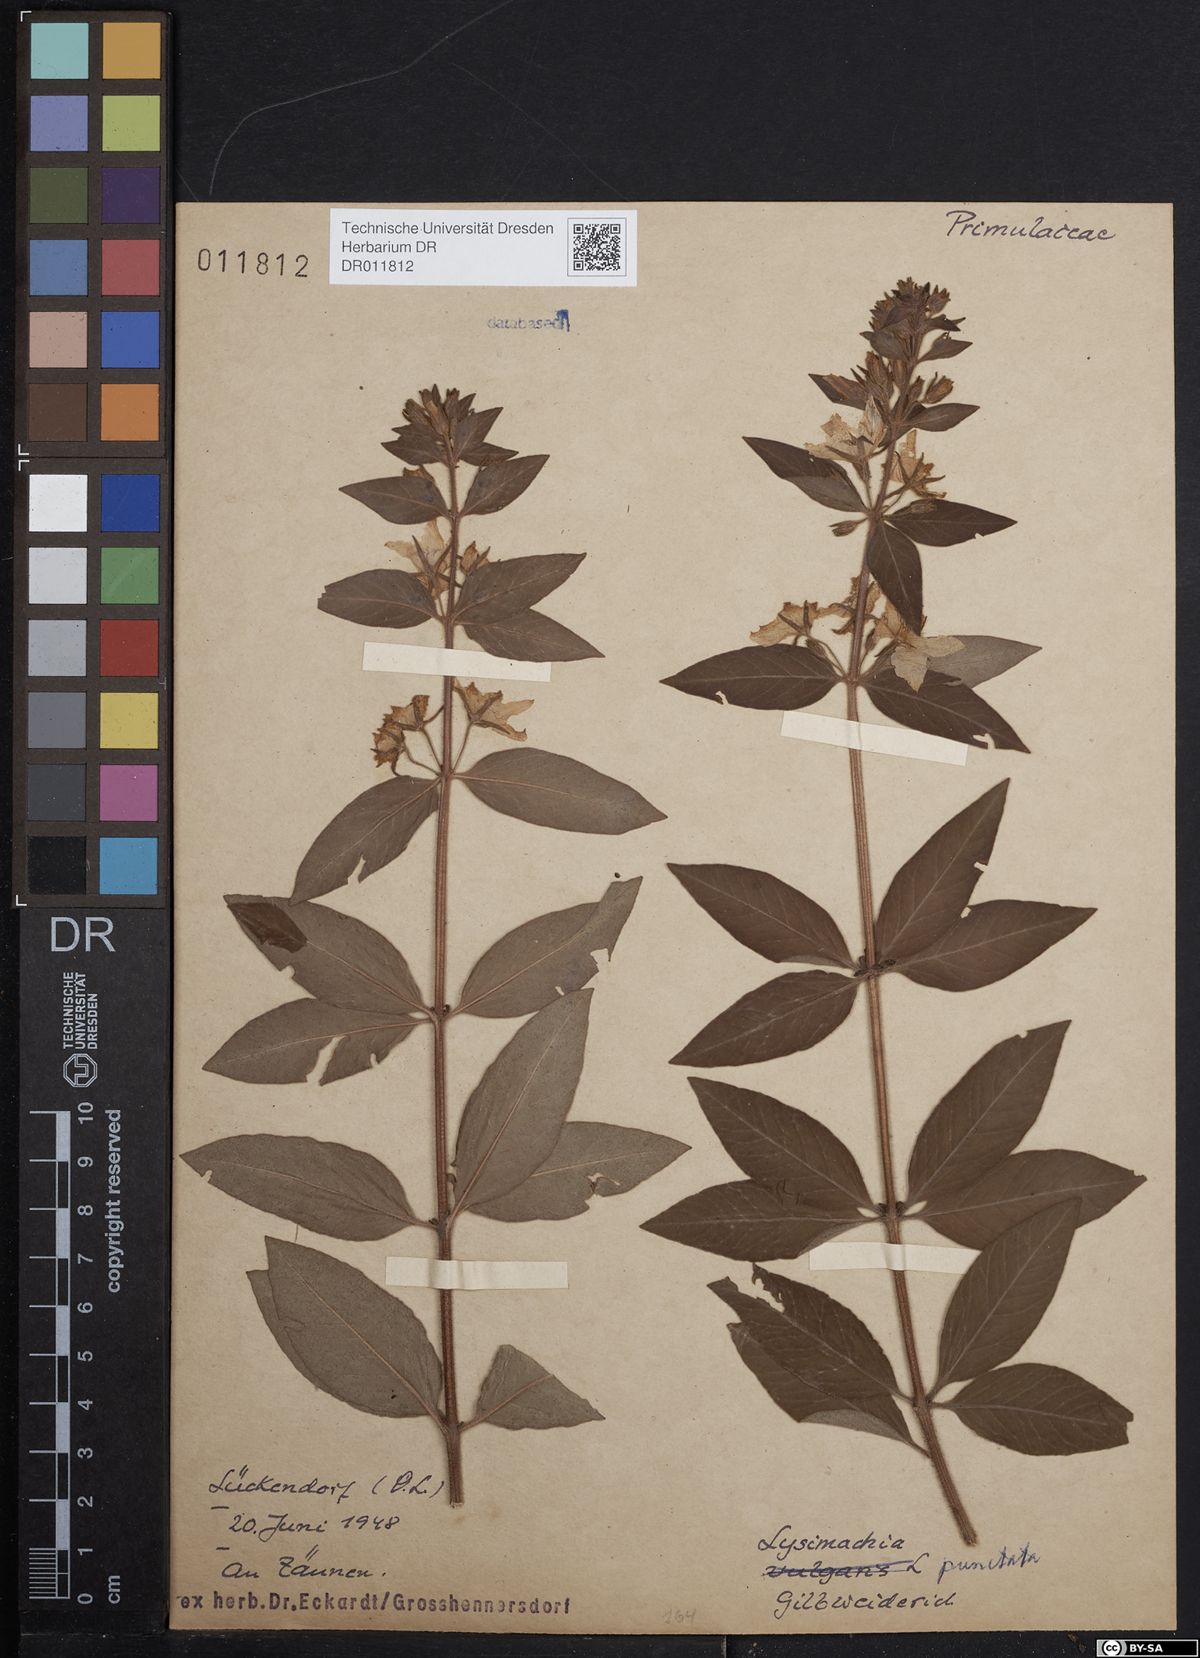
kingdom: Plantae
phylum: Tracheophyta
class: Magnoliopsida
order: Ericales
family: Primulaceae
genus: Lysimachia
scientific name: Lysimachia punctata
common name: Dotted loosestrife
